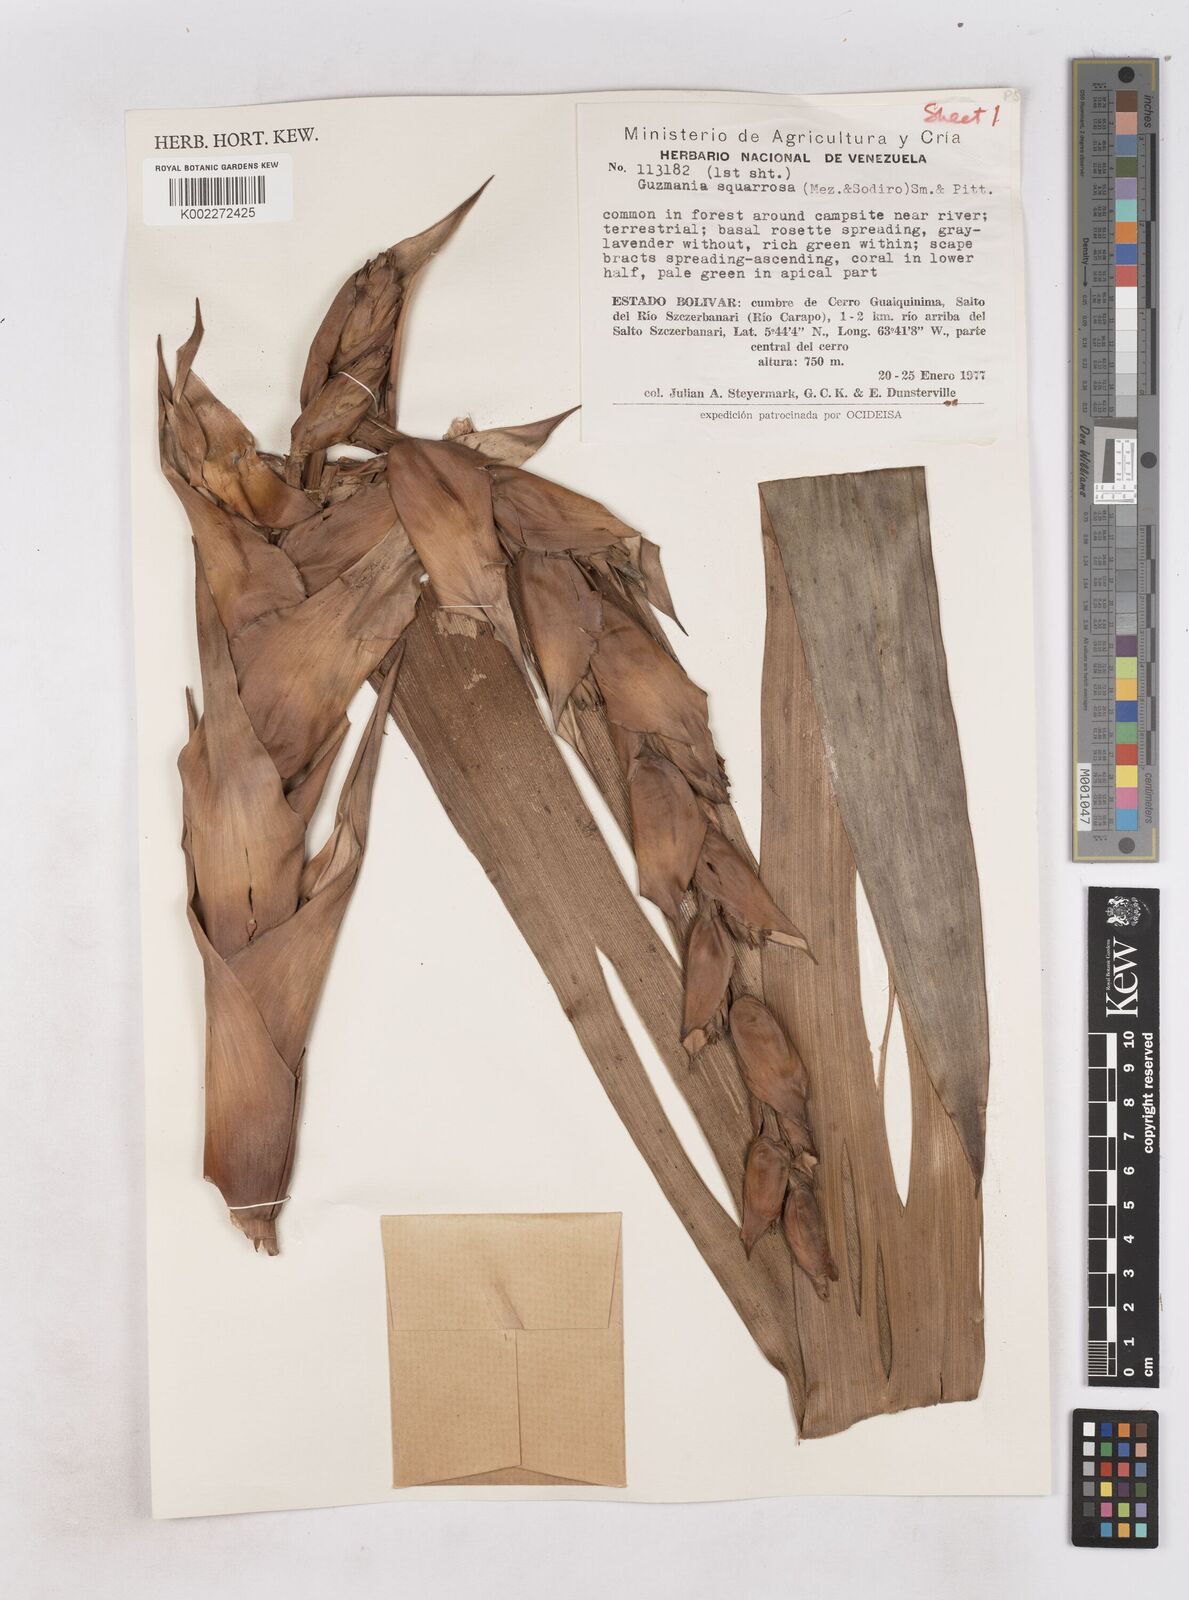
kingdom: Plantae
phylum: Tracheophyta
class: Liliopsida
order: Poales
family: Bromeliaceae
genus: Guzmania
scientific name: Guzmania squarrosa
